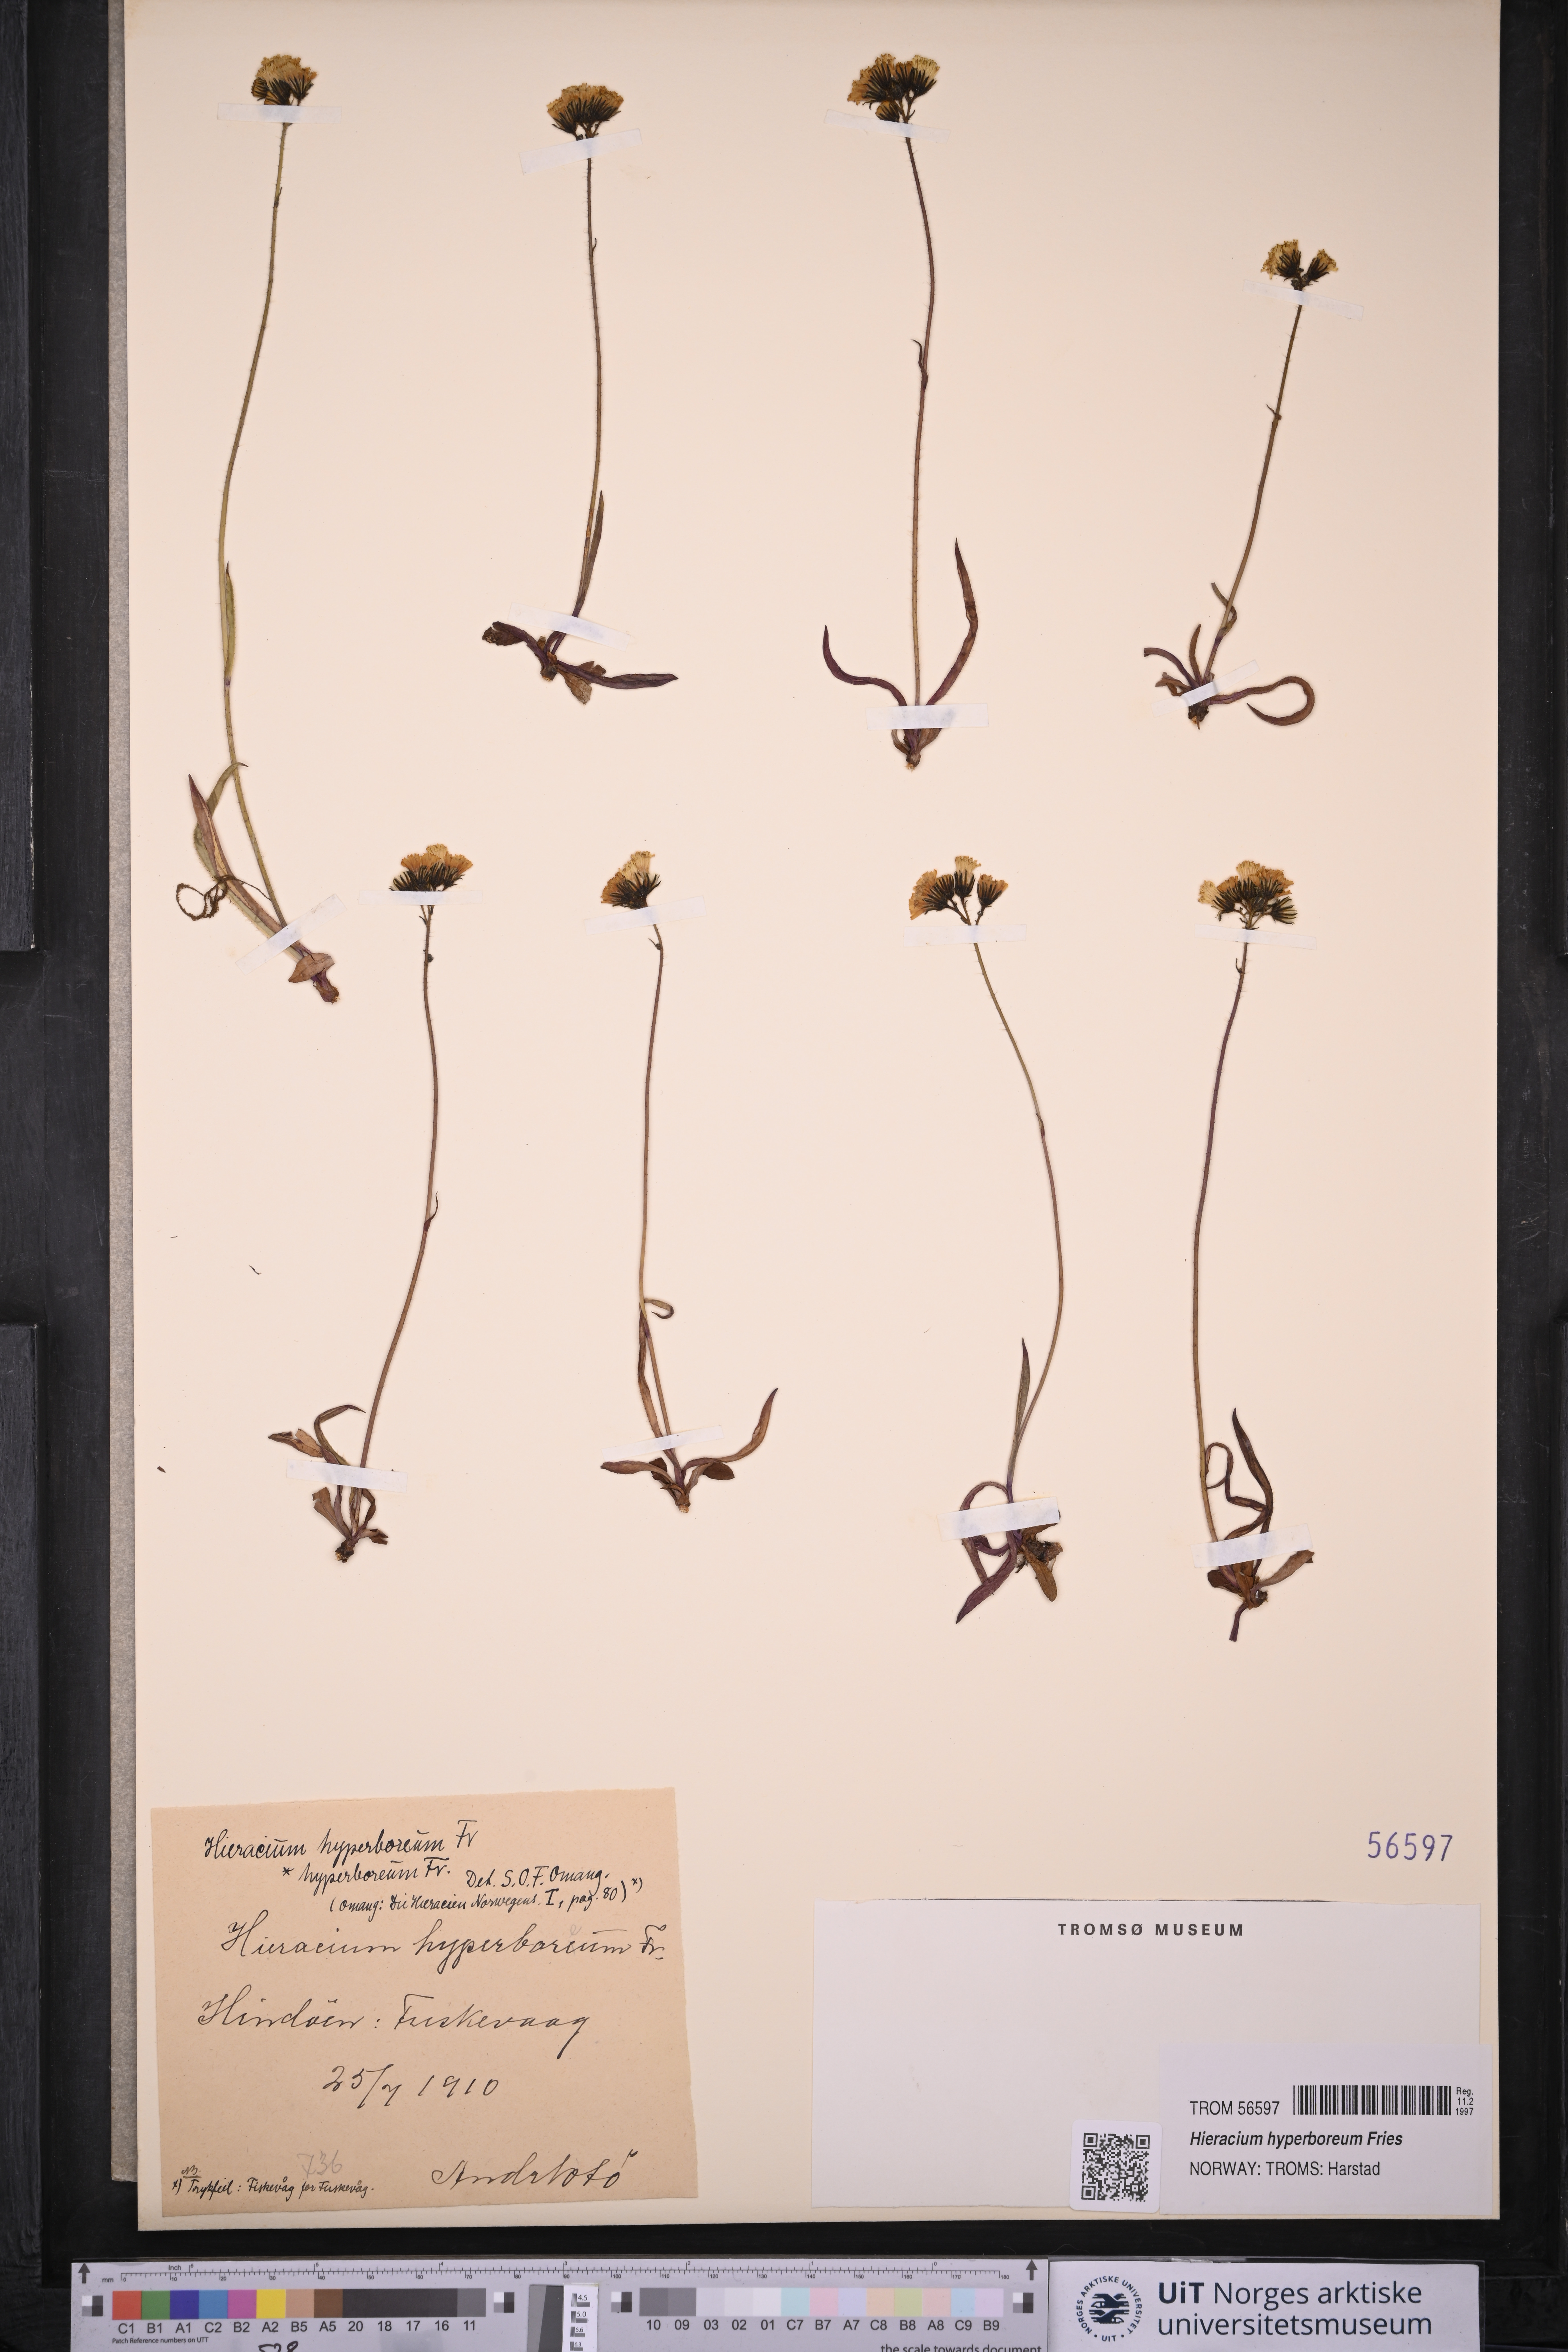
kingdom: Plantae
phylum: Tracheophyta
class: Magnoliopsida
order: Asterales
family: Asteraceae
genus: Pilosella
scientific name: Pilosella hyperborea
